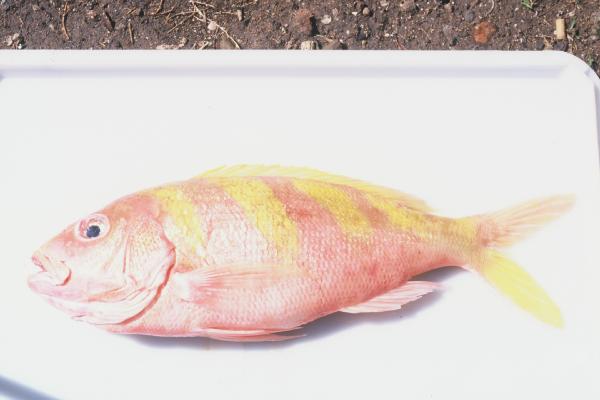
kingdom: Animalia
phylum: Chordata
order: Perciformes
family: Lutjanidae
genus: Pristipomoides
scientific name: Pristipomoides zonatus
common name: Brigham's snapper fish
